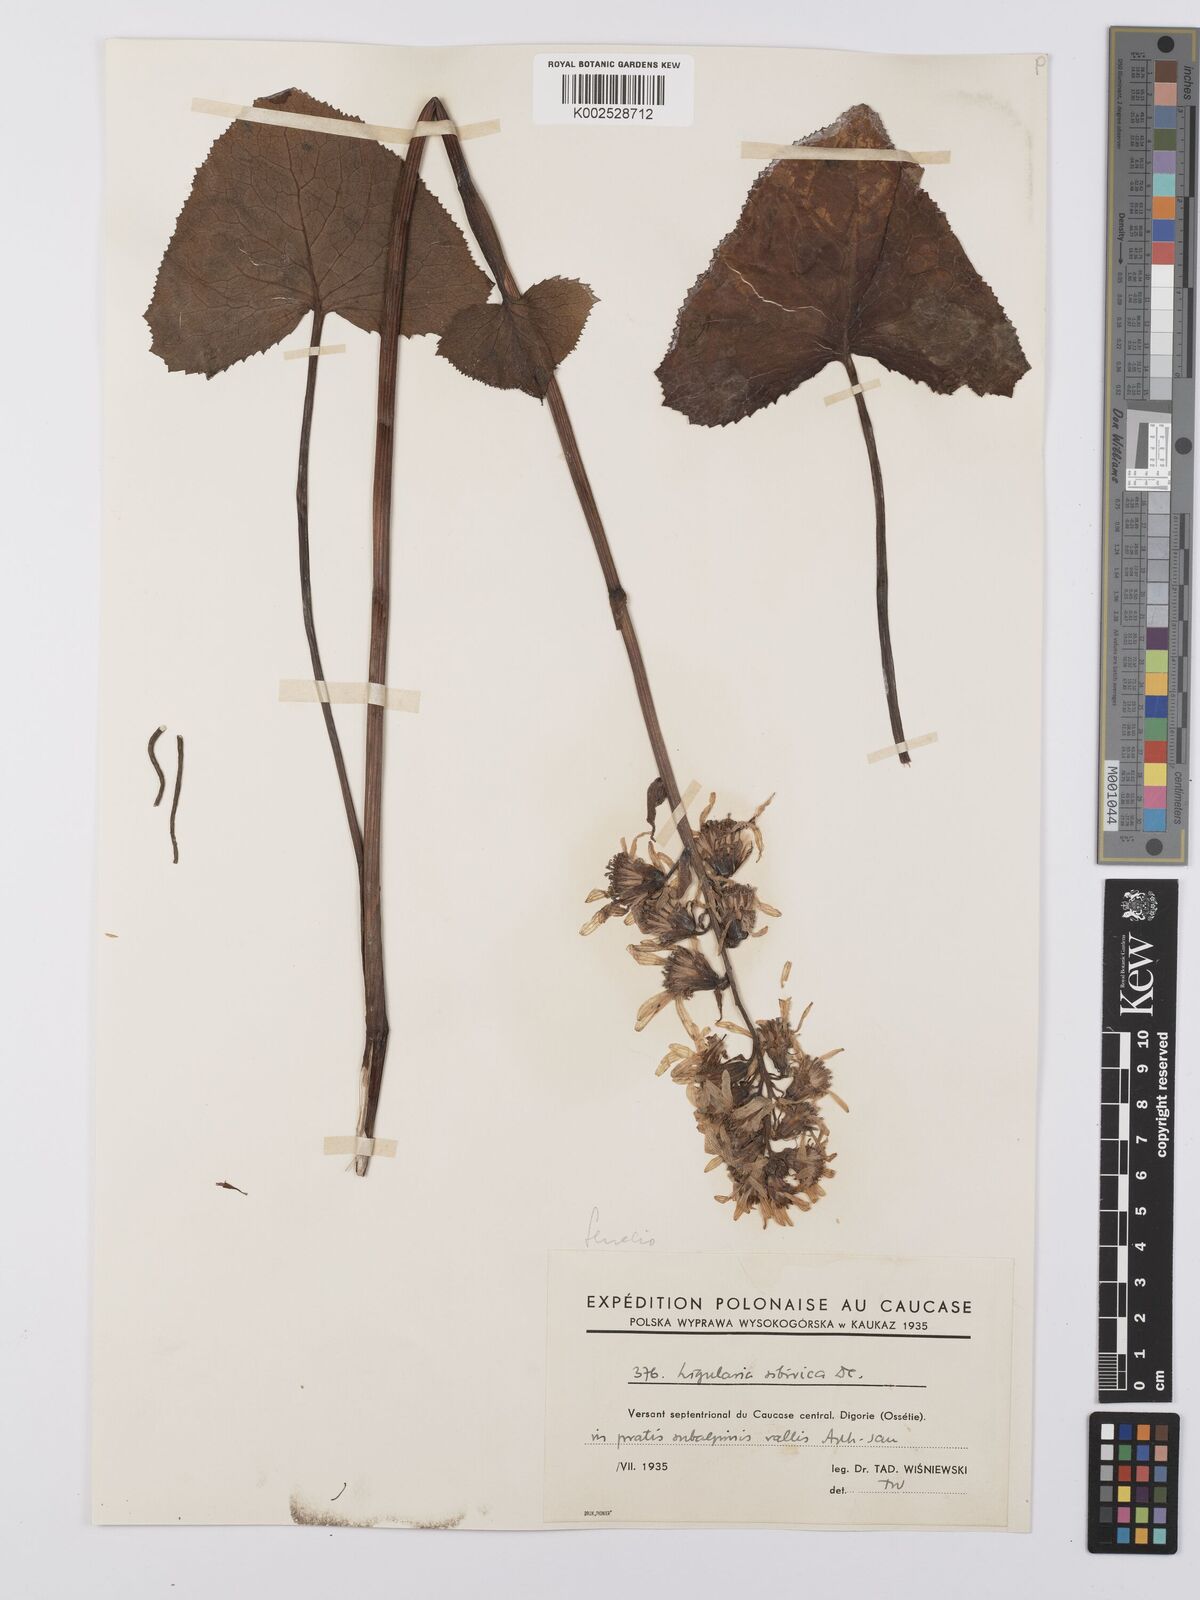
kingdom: Plantae
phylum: Tracheophyta
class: Magnoliopsida
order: Asterales
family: Asteraceae
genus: Ligularia
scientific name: Ligularia sibirica
